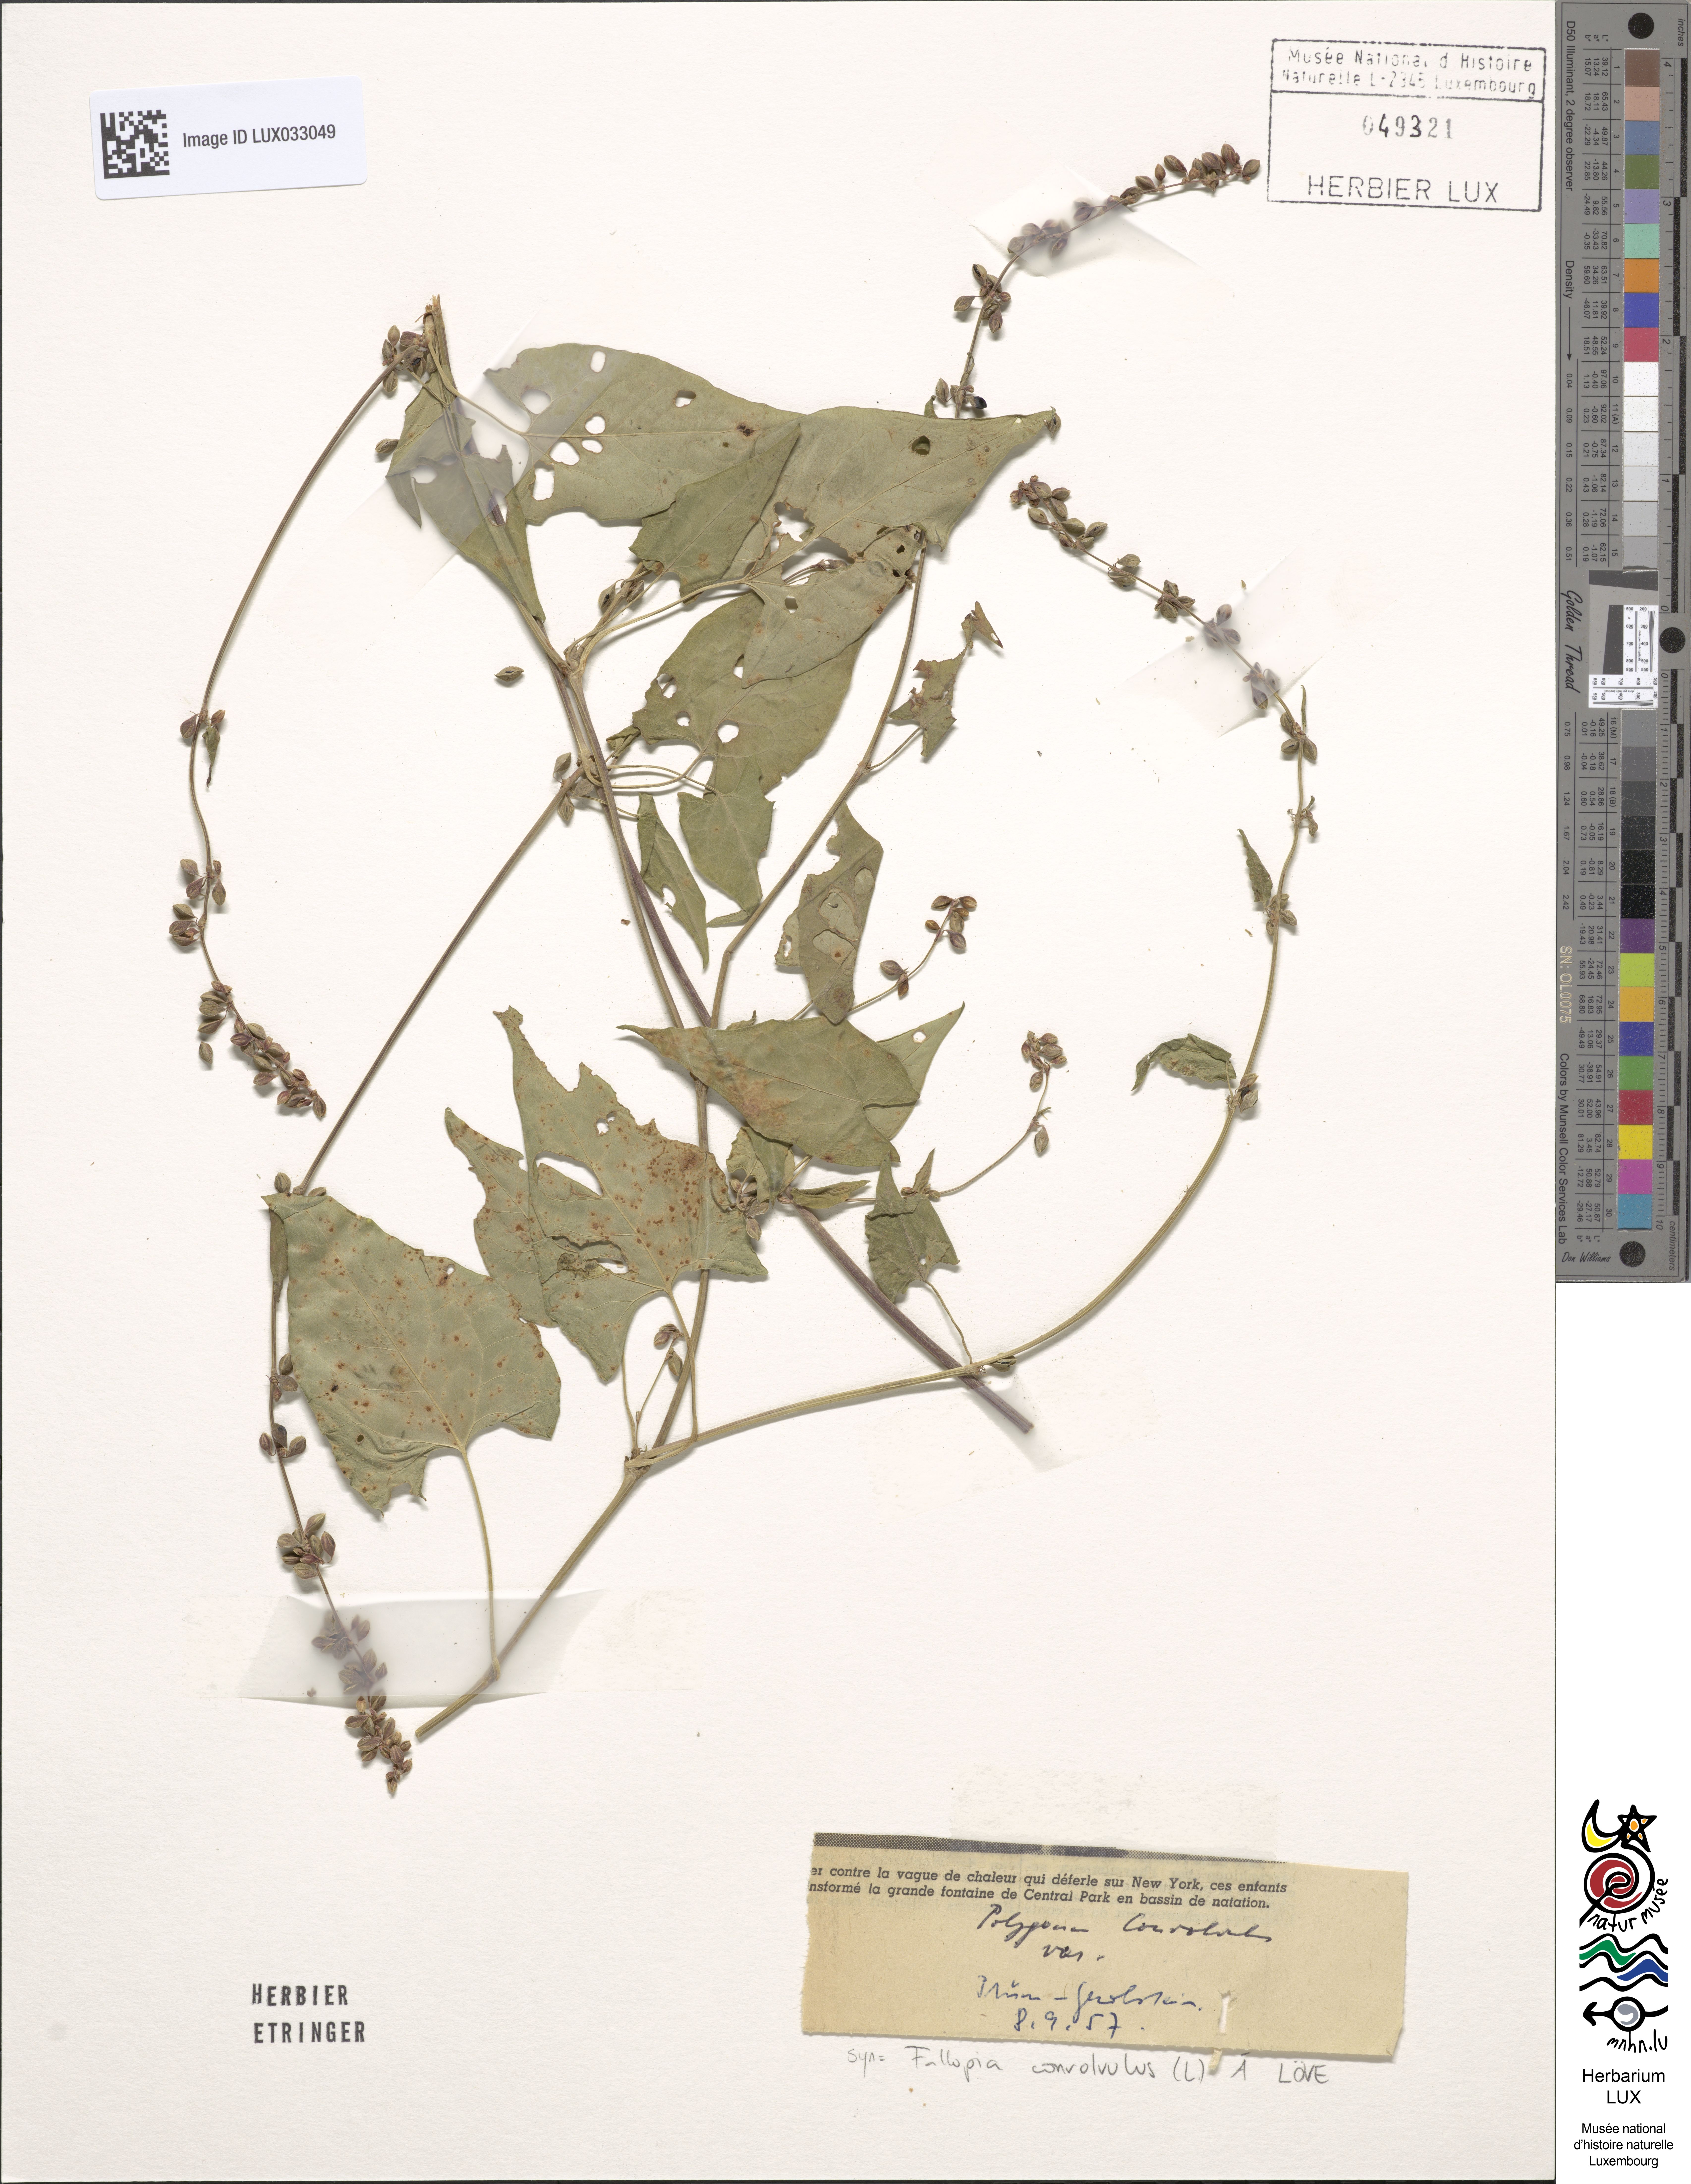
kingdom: Plantae
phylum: Tracheophyta
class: Magnoliopsida
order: Caryophyllales
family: Polygonaceae
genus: Fallopia
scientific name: Fallopia convolvulus
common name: Black bindweed
